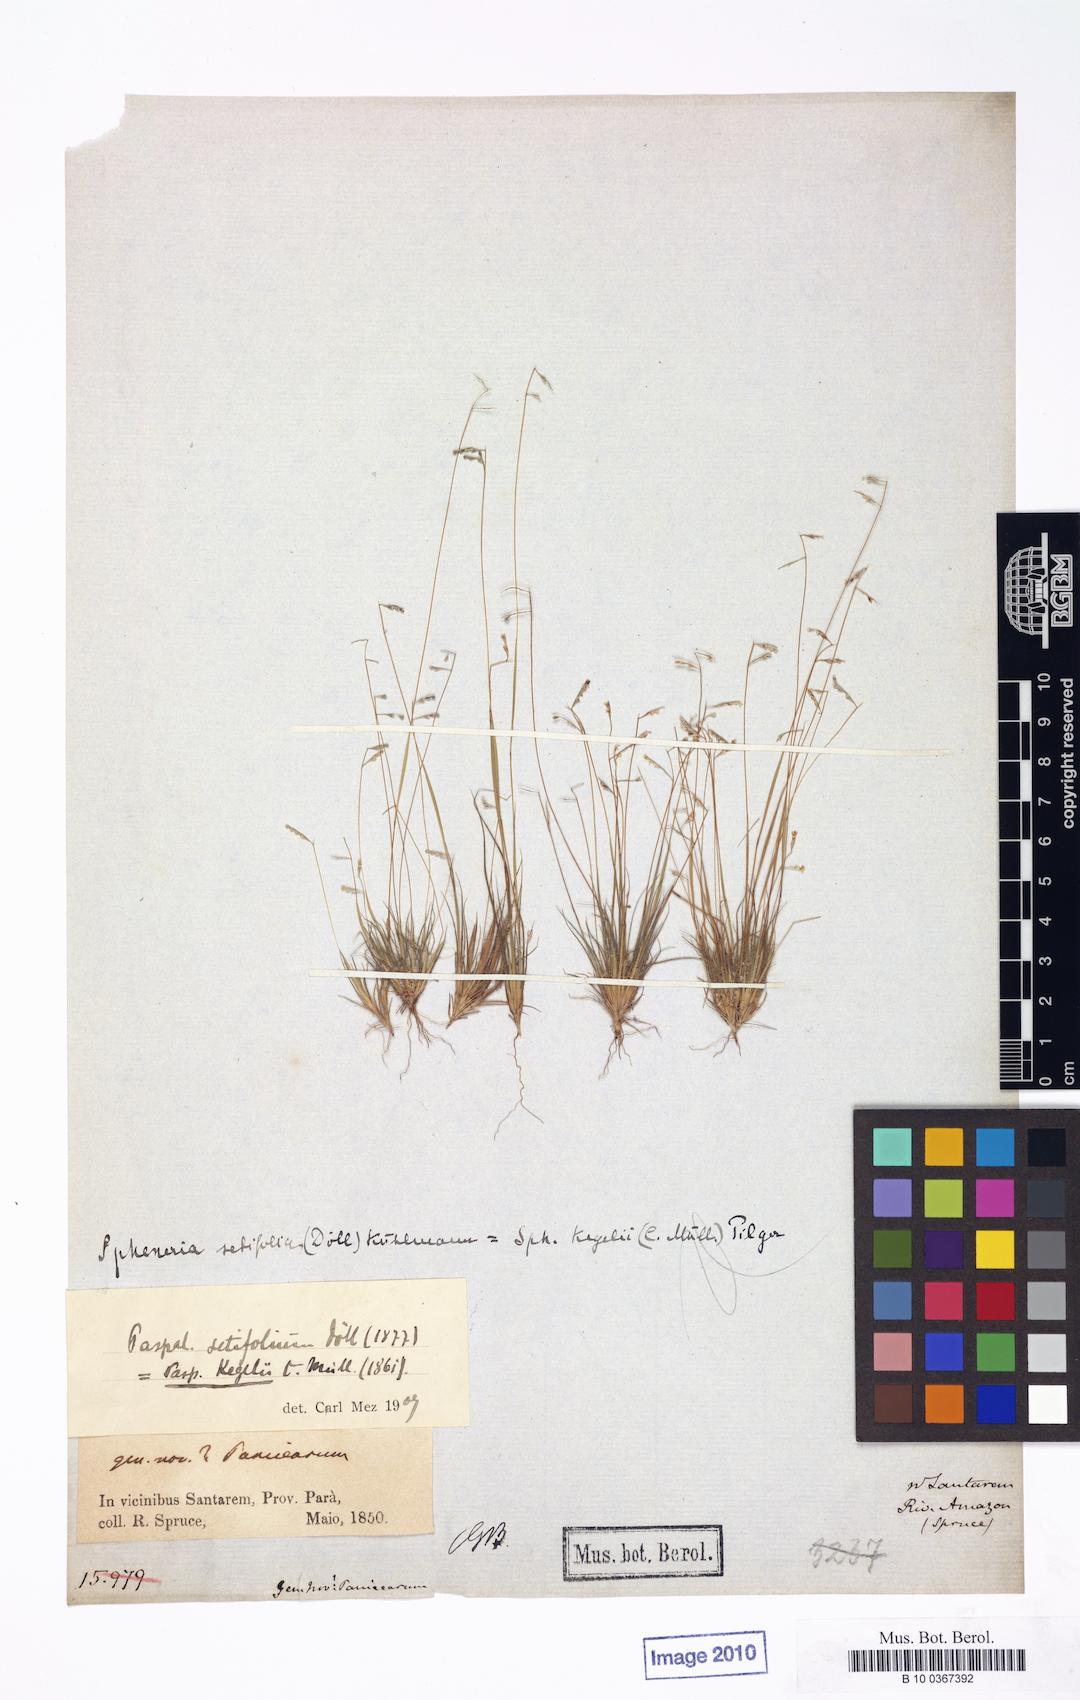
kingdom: Plantae
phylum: Tracheophyta
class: Liliopsida
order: Poales
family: Poaceae
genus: Spheneria
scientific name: Spheneria kegelii
